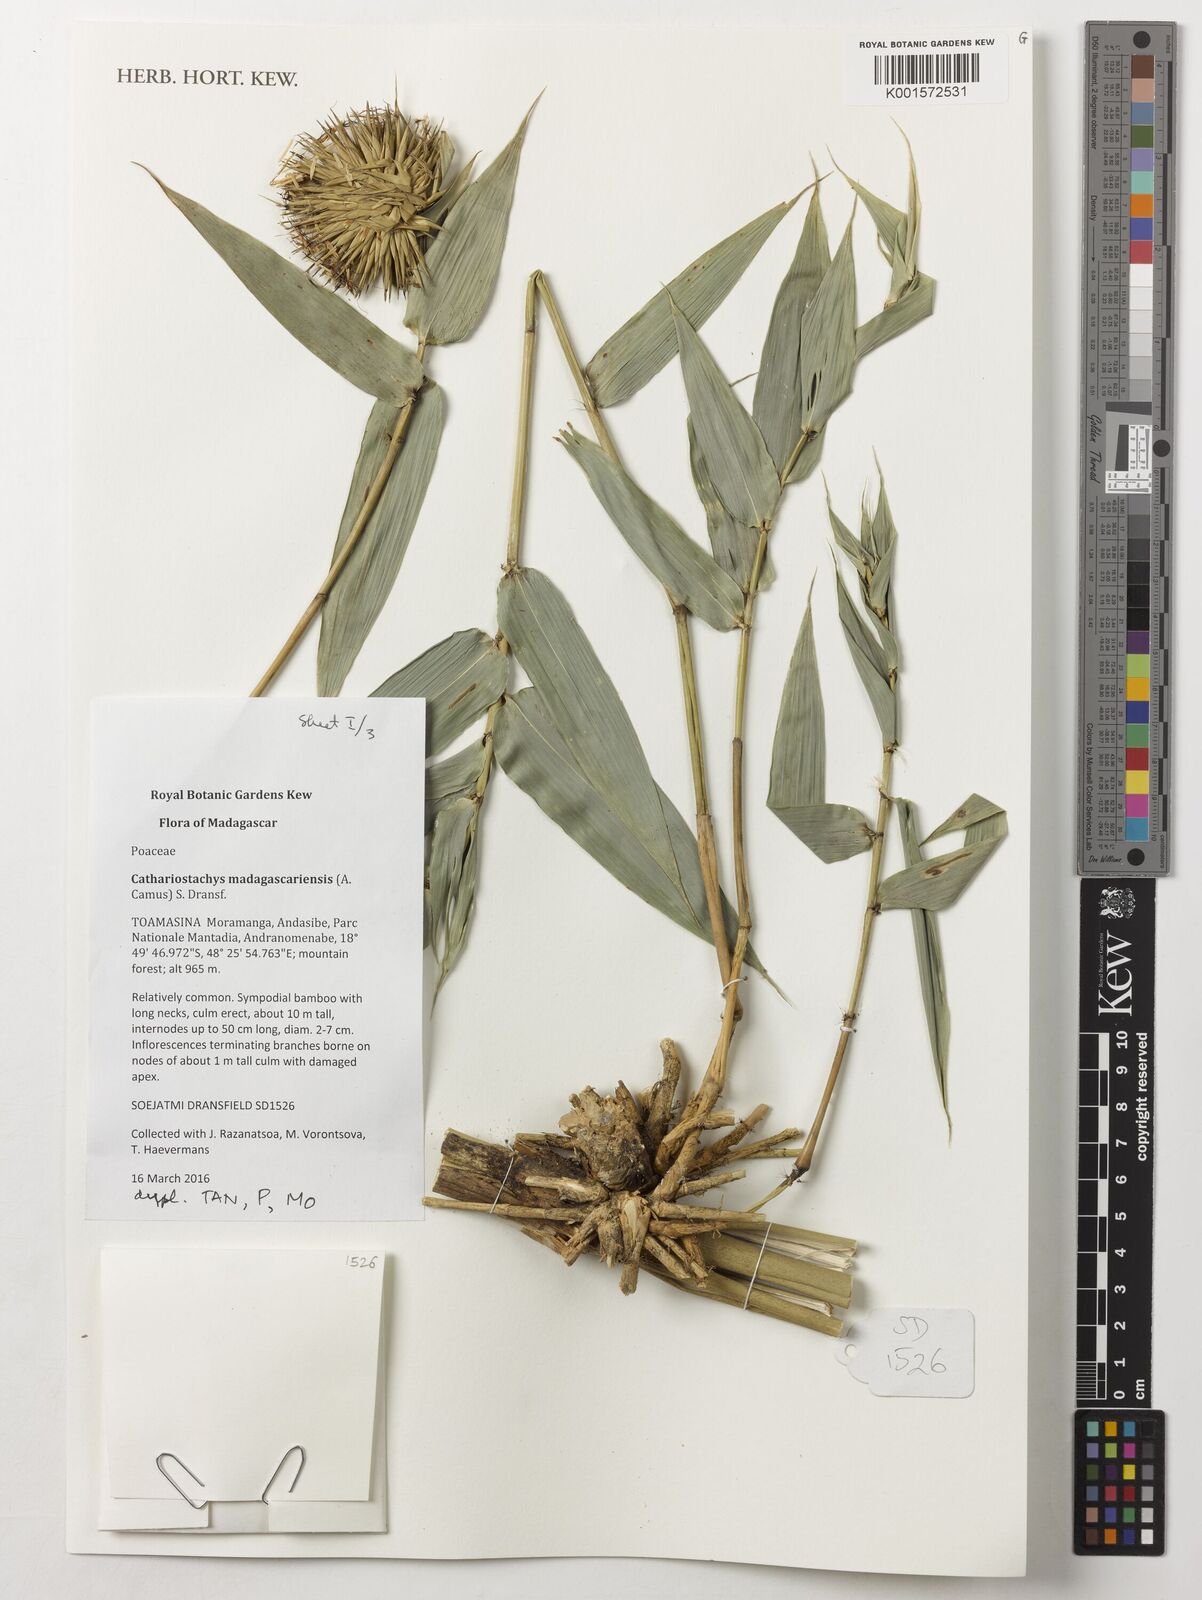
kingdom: Plantae
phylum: Tracheophyta
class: Liliopsida
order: Poales
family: Poaceae
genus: Cathariostachys
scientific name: Cathariostachys madagascariensis
